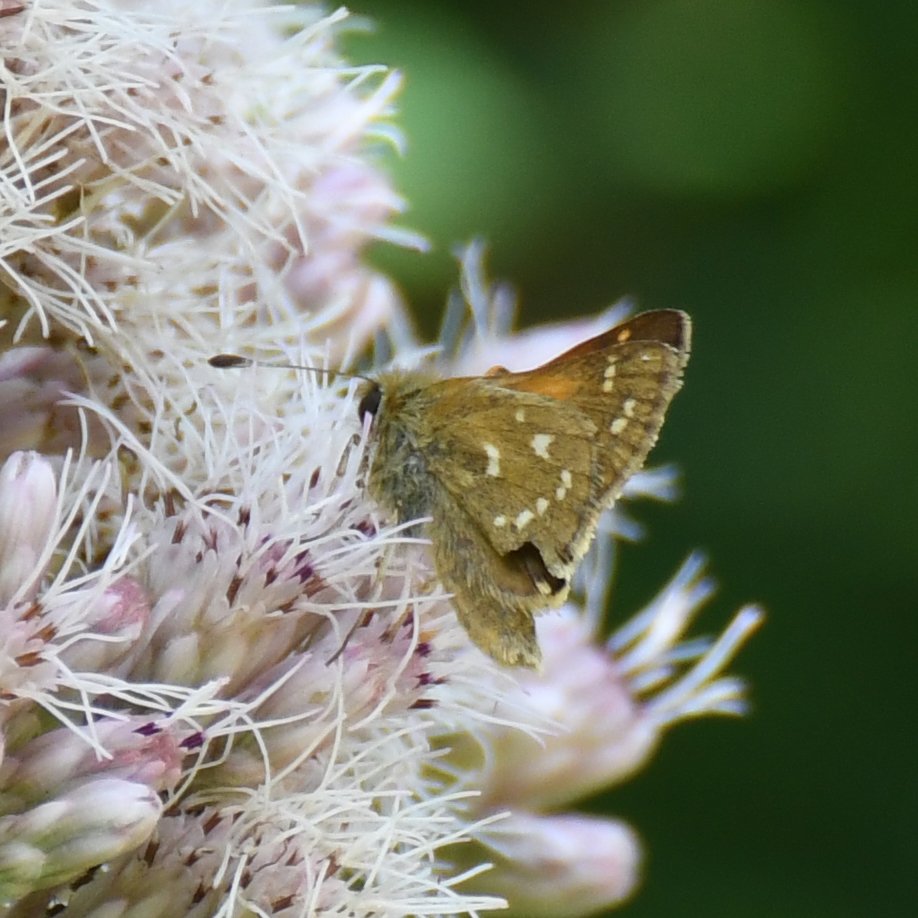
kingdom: Animalia
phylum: Arthropoda
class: Insecta
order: Lepidoptera
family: Hesperiidae
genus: Hesperia
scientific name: Hesperia comma
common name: Common Branded Skipper
